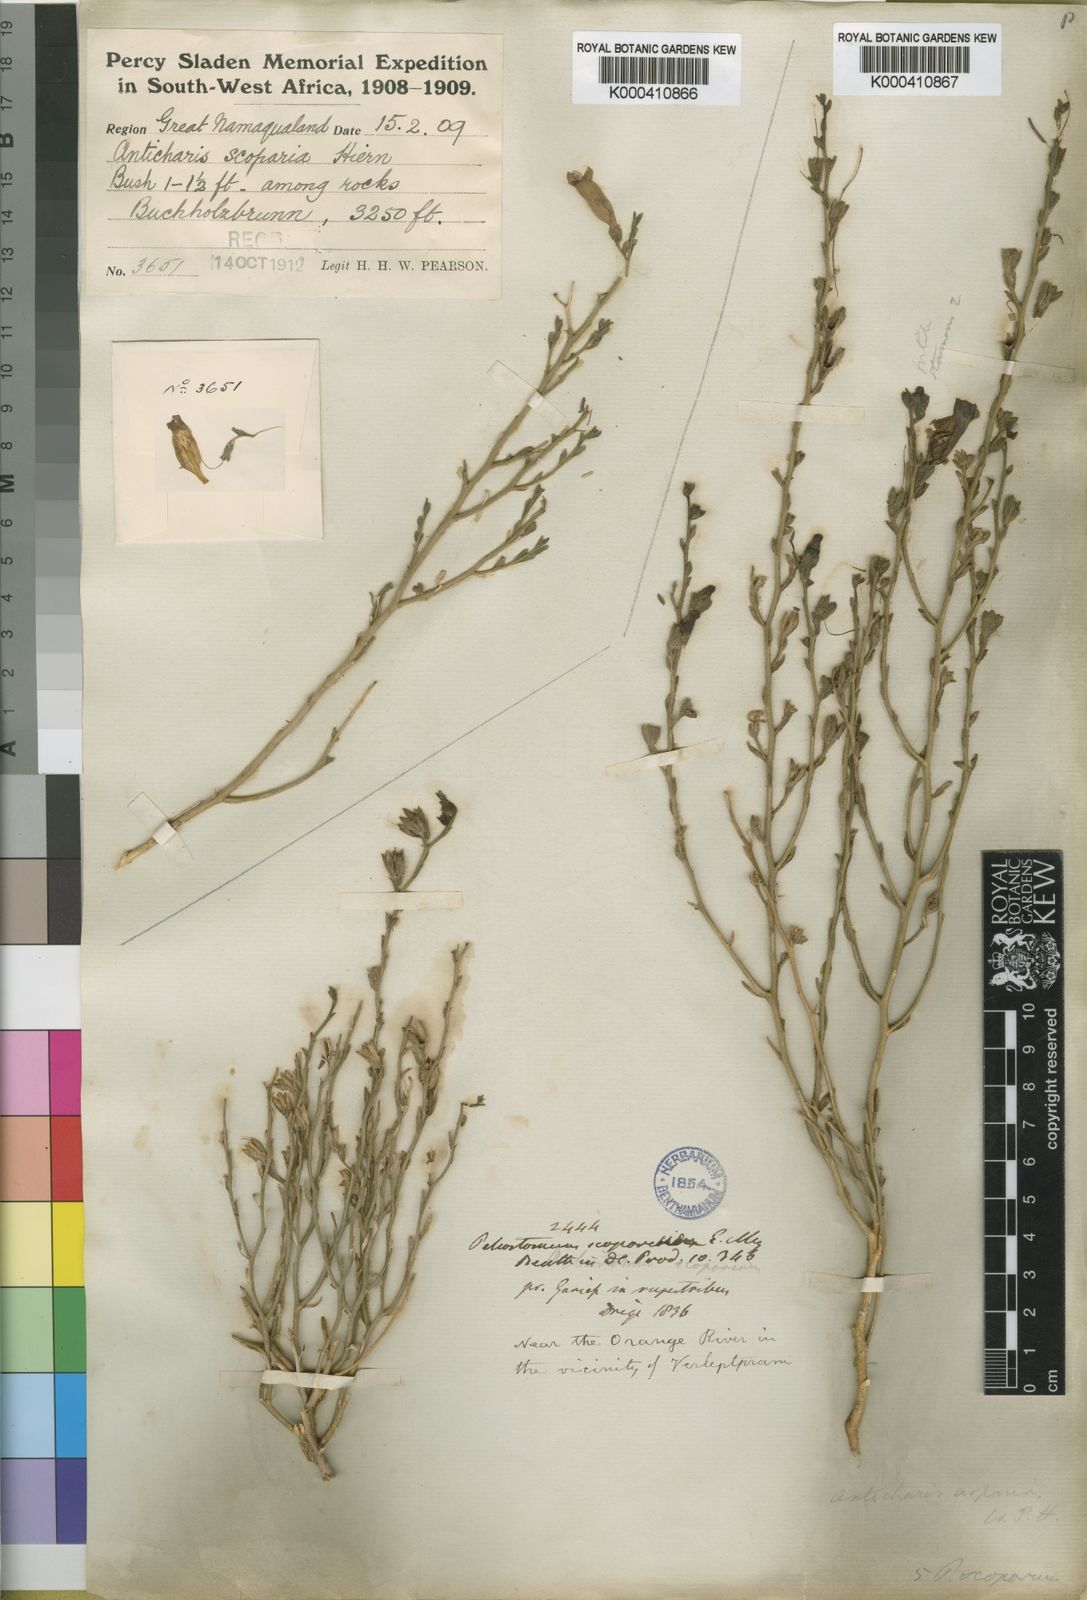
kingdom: Plantae
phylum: Tracheophyta
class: Magnoliopsida
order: Lamiales
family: Scrophulariaceae
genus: Anticharis
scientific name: Anticharis
